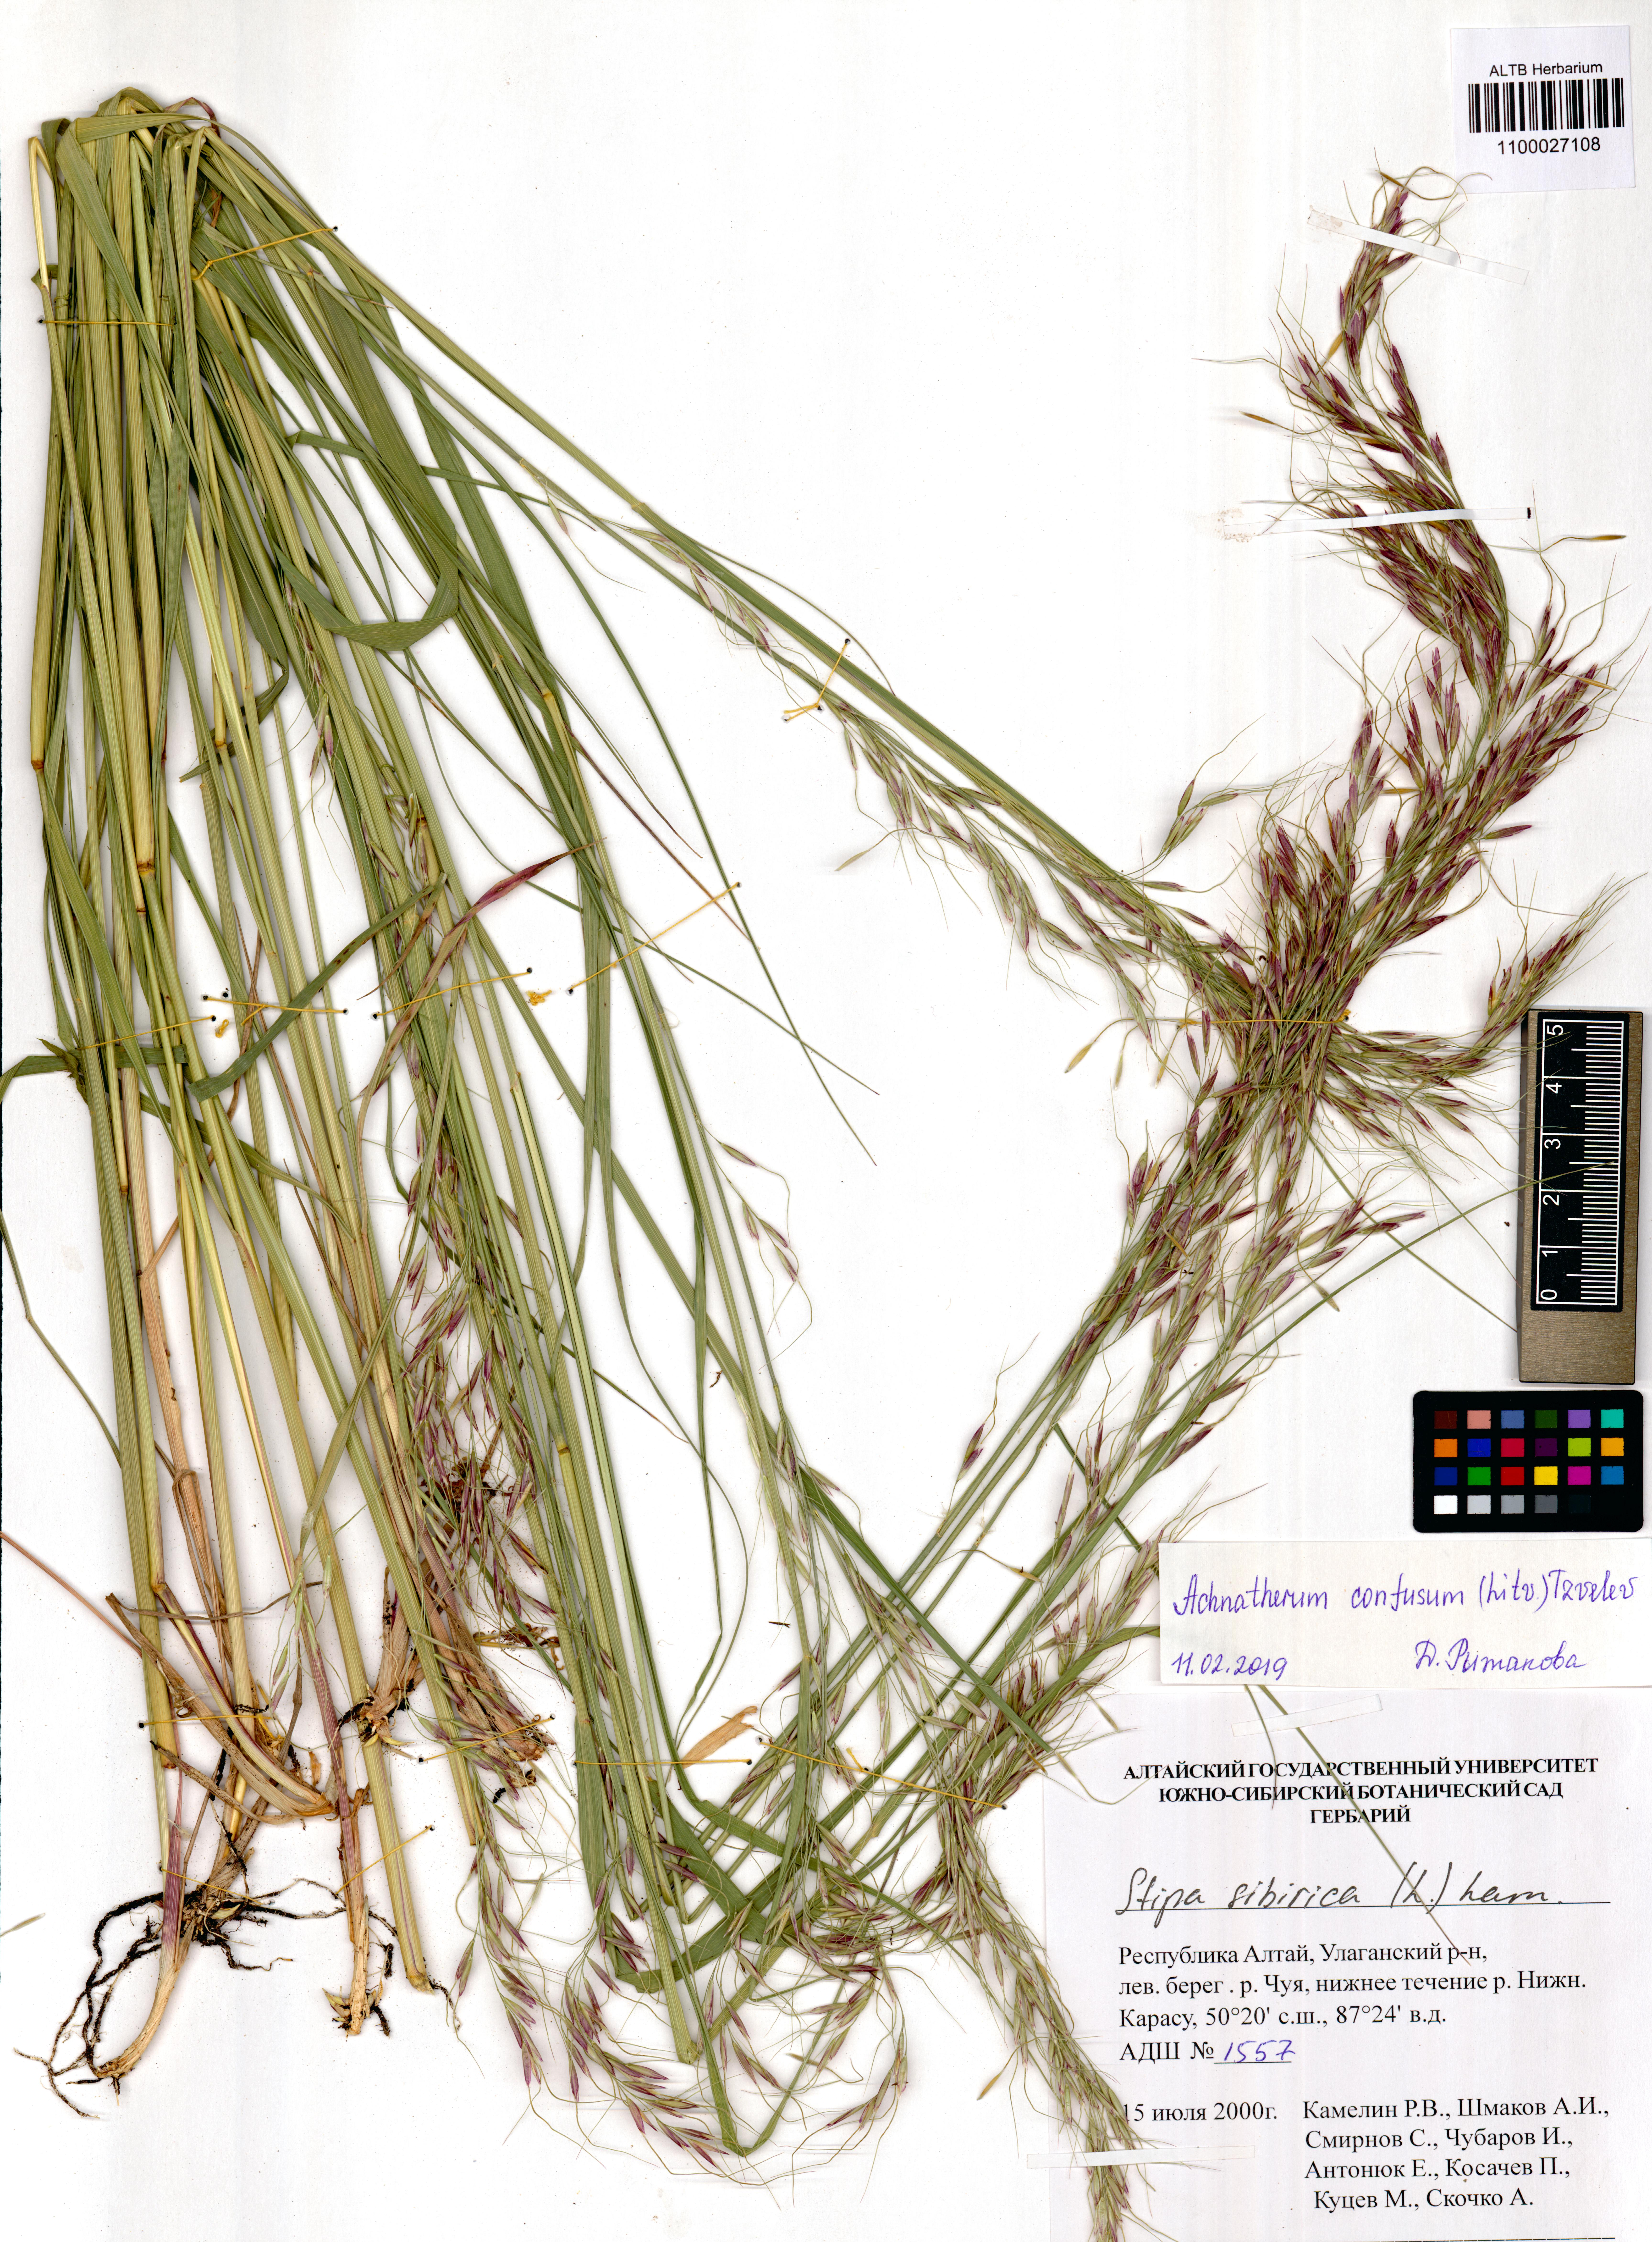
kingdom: Plantae
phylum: Tracheophyta
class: Liliopsida
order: Poales
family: Poaceae
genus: Achnatherum
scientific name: Achnatherum sibiricum
